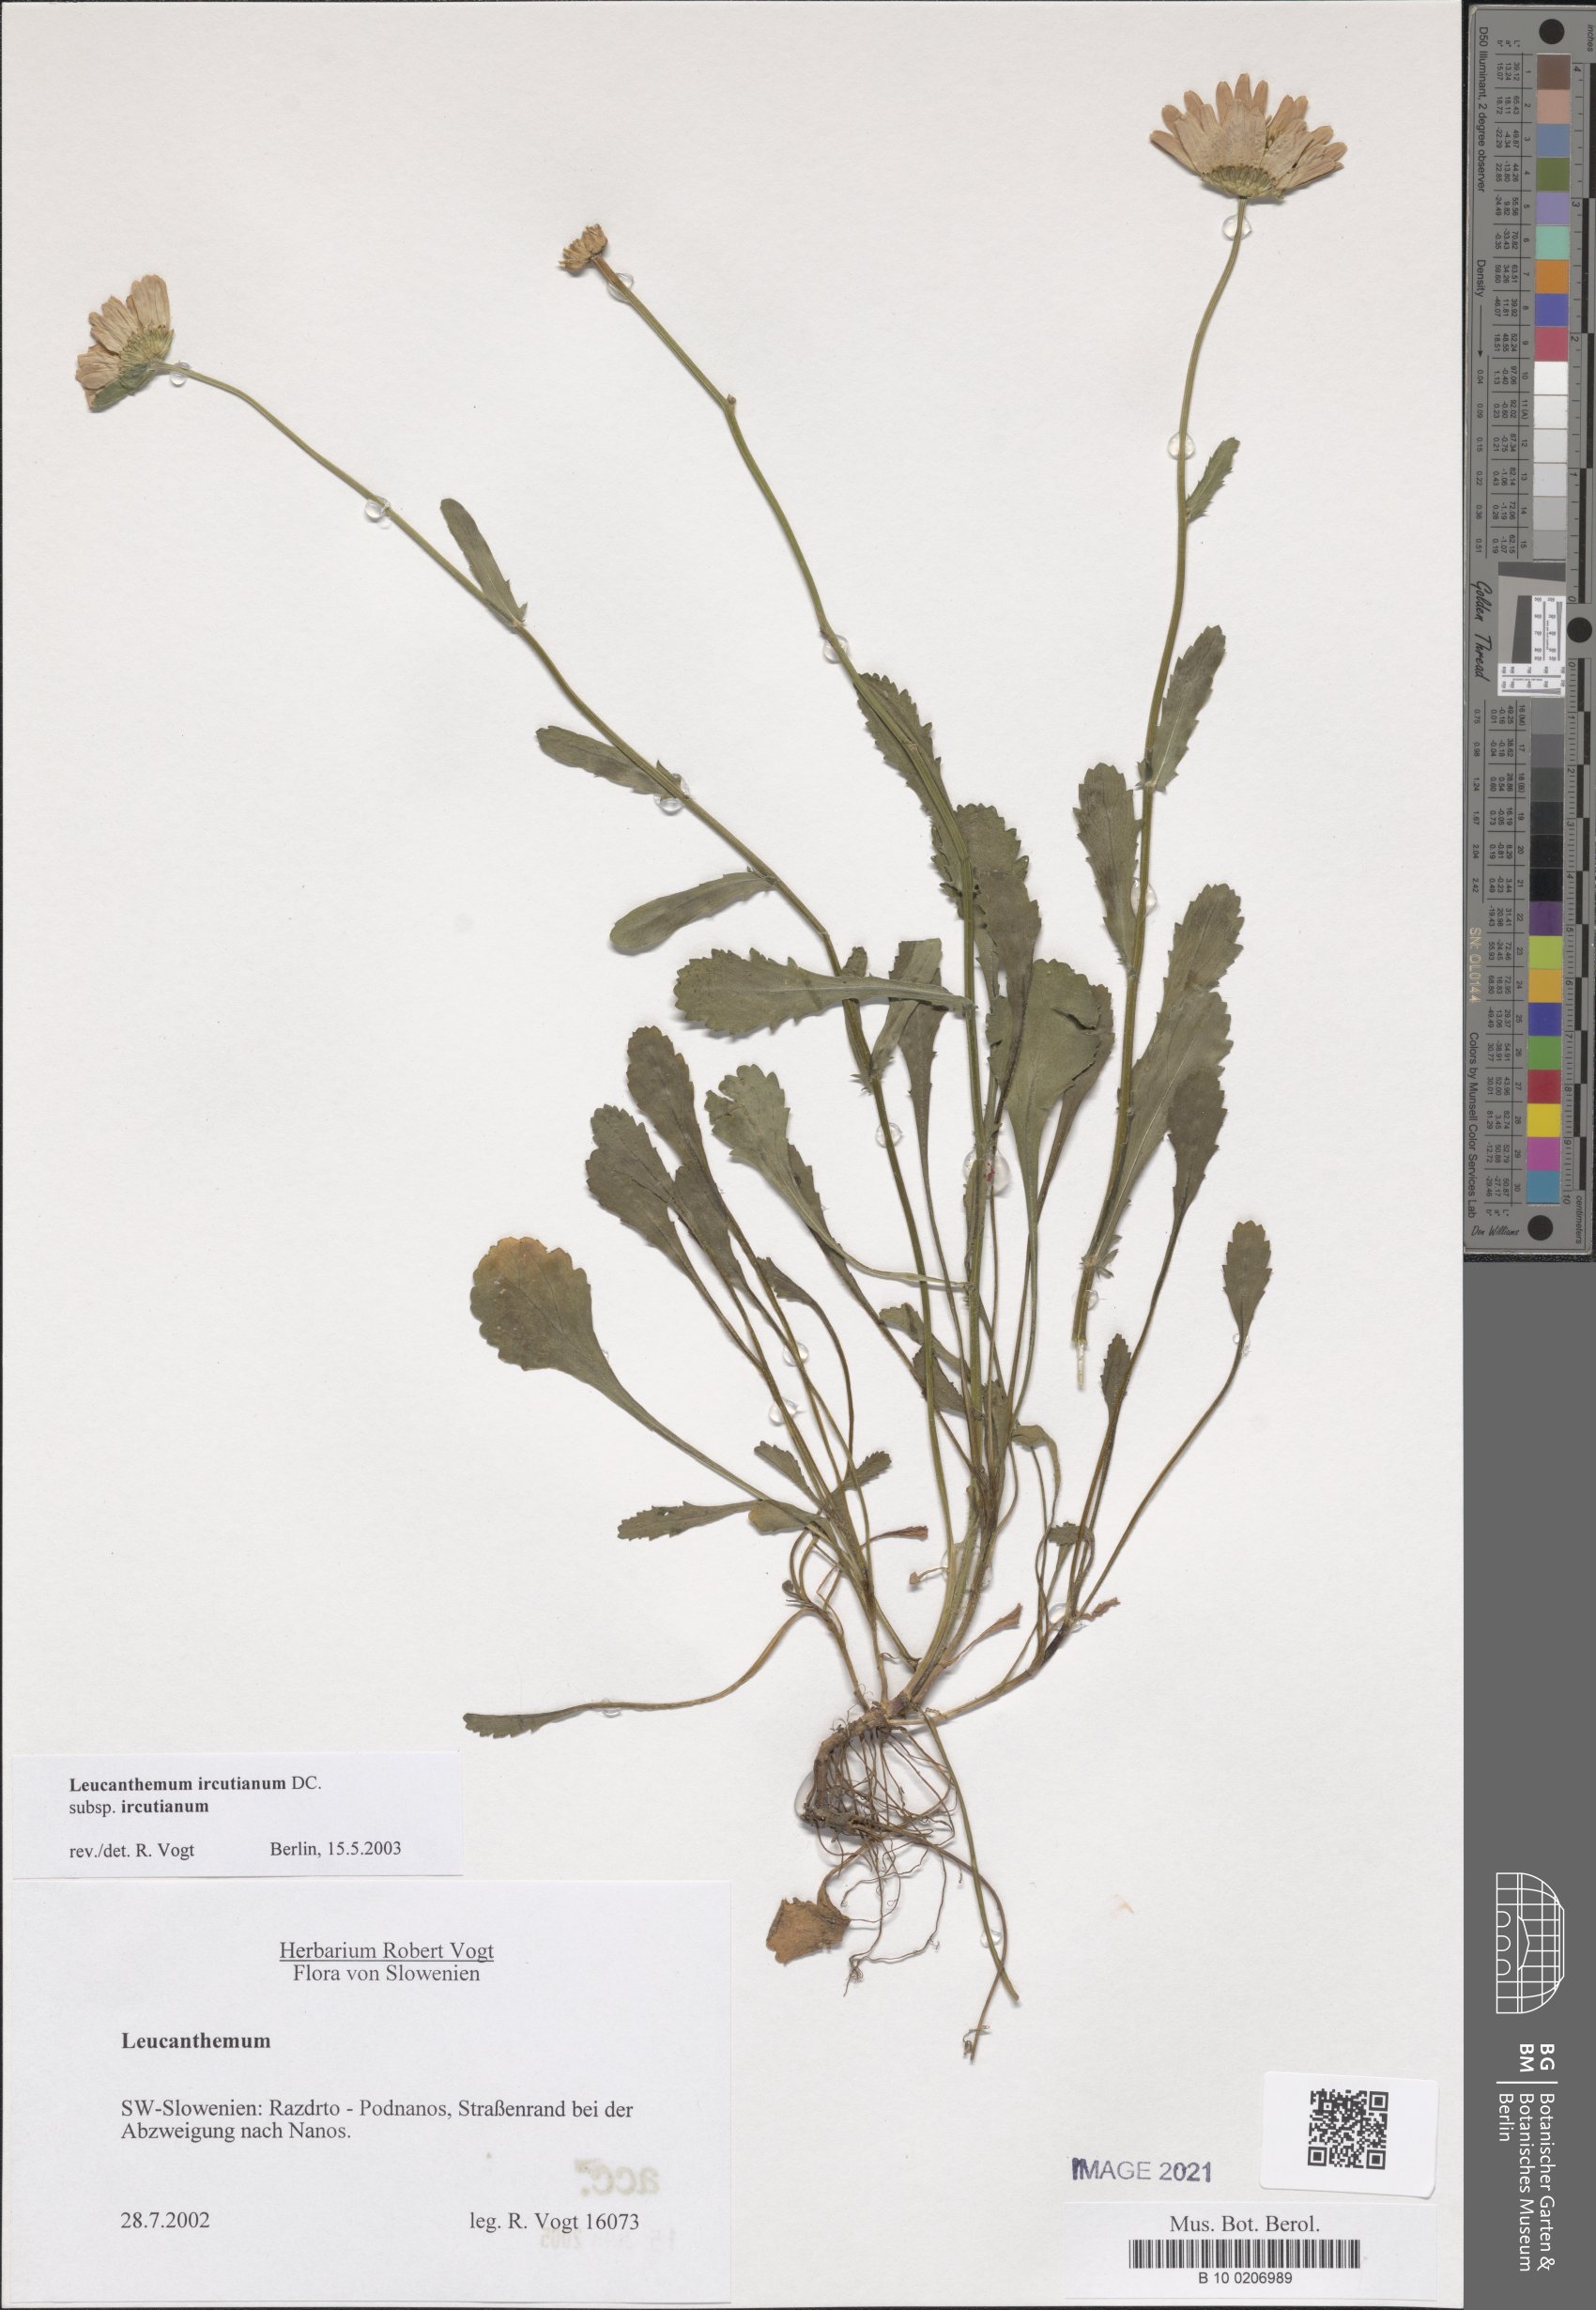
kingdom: Plantae
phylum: Tracheophyta
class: Magnoliopsida
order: Asterales
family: Asteraceae
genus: Leucanthemum
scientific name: Leucanthemum ircutianum
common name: Daisy
